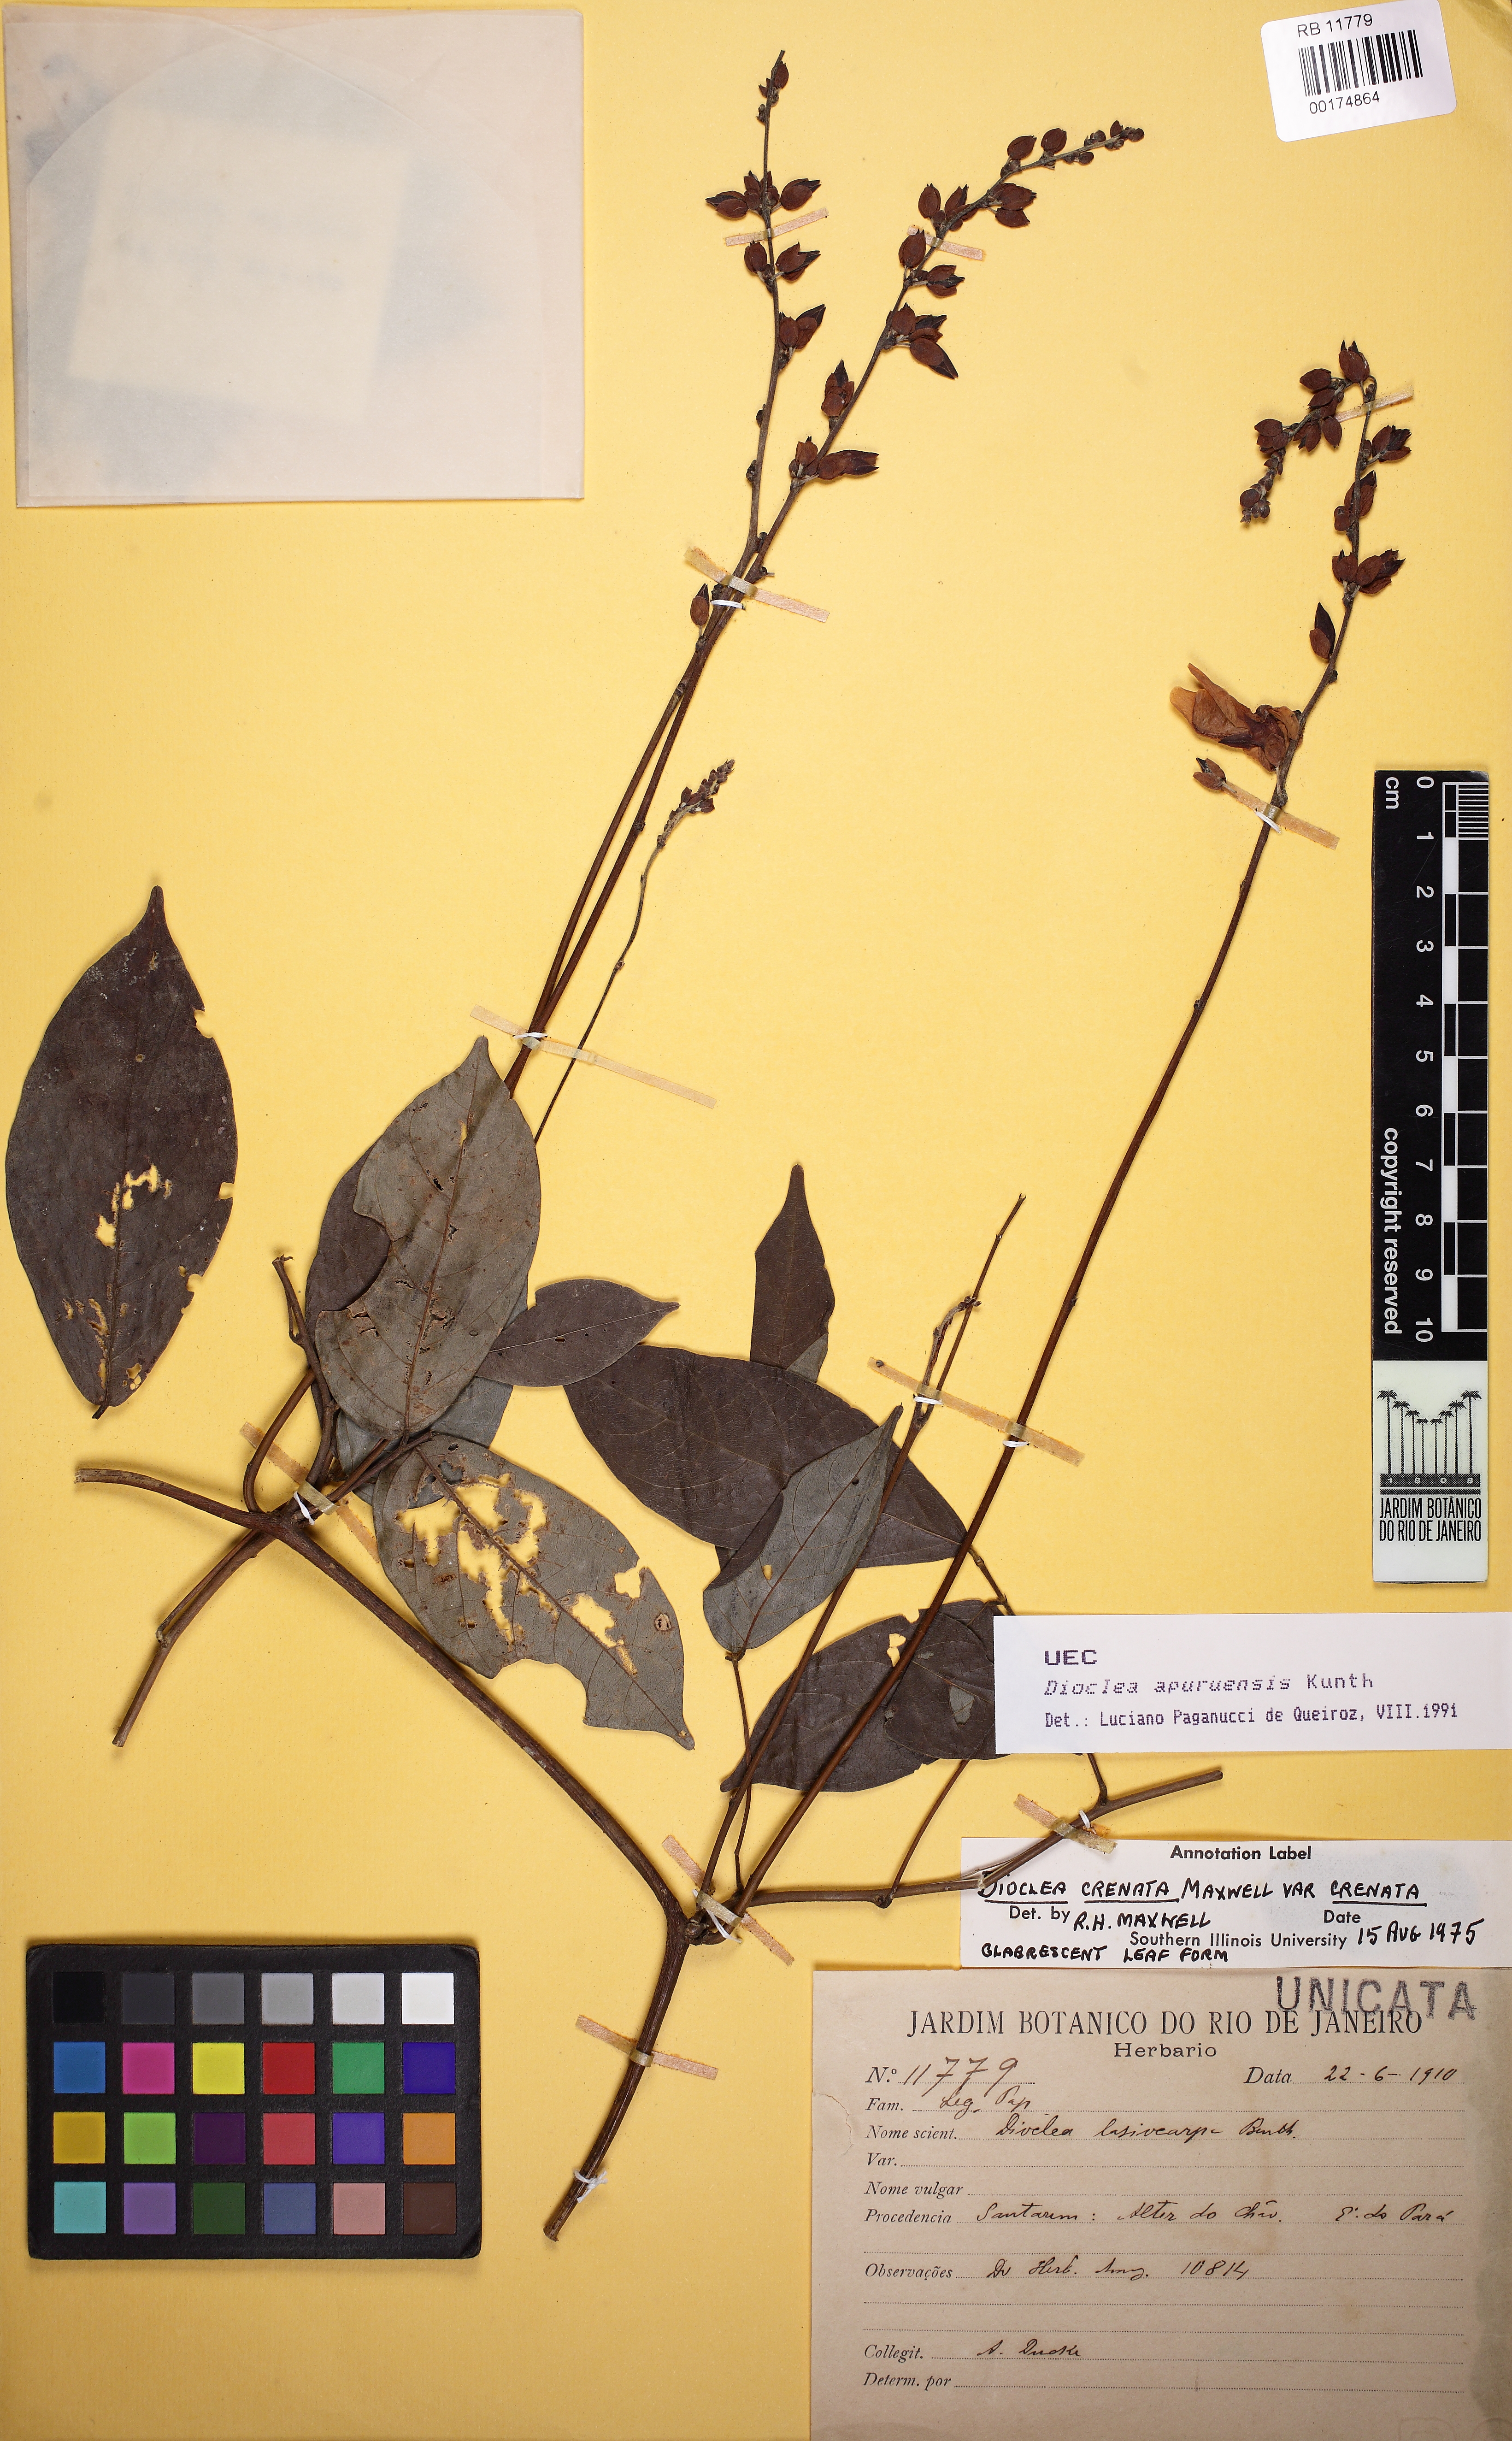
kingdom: Plantae
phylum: Tracheophyta
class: Magnoliopsida
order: Fabales
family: Fabaceae
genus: Dioclea
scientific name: Dioclea apurensis
